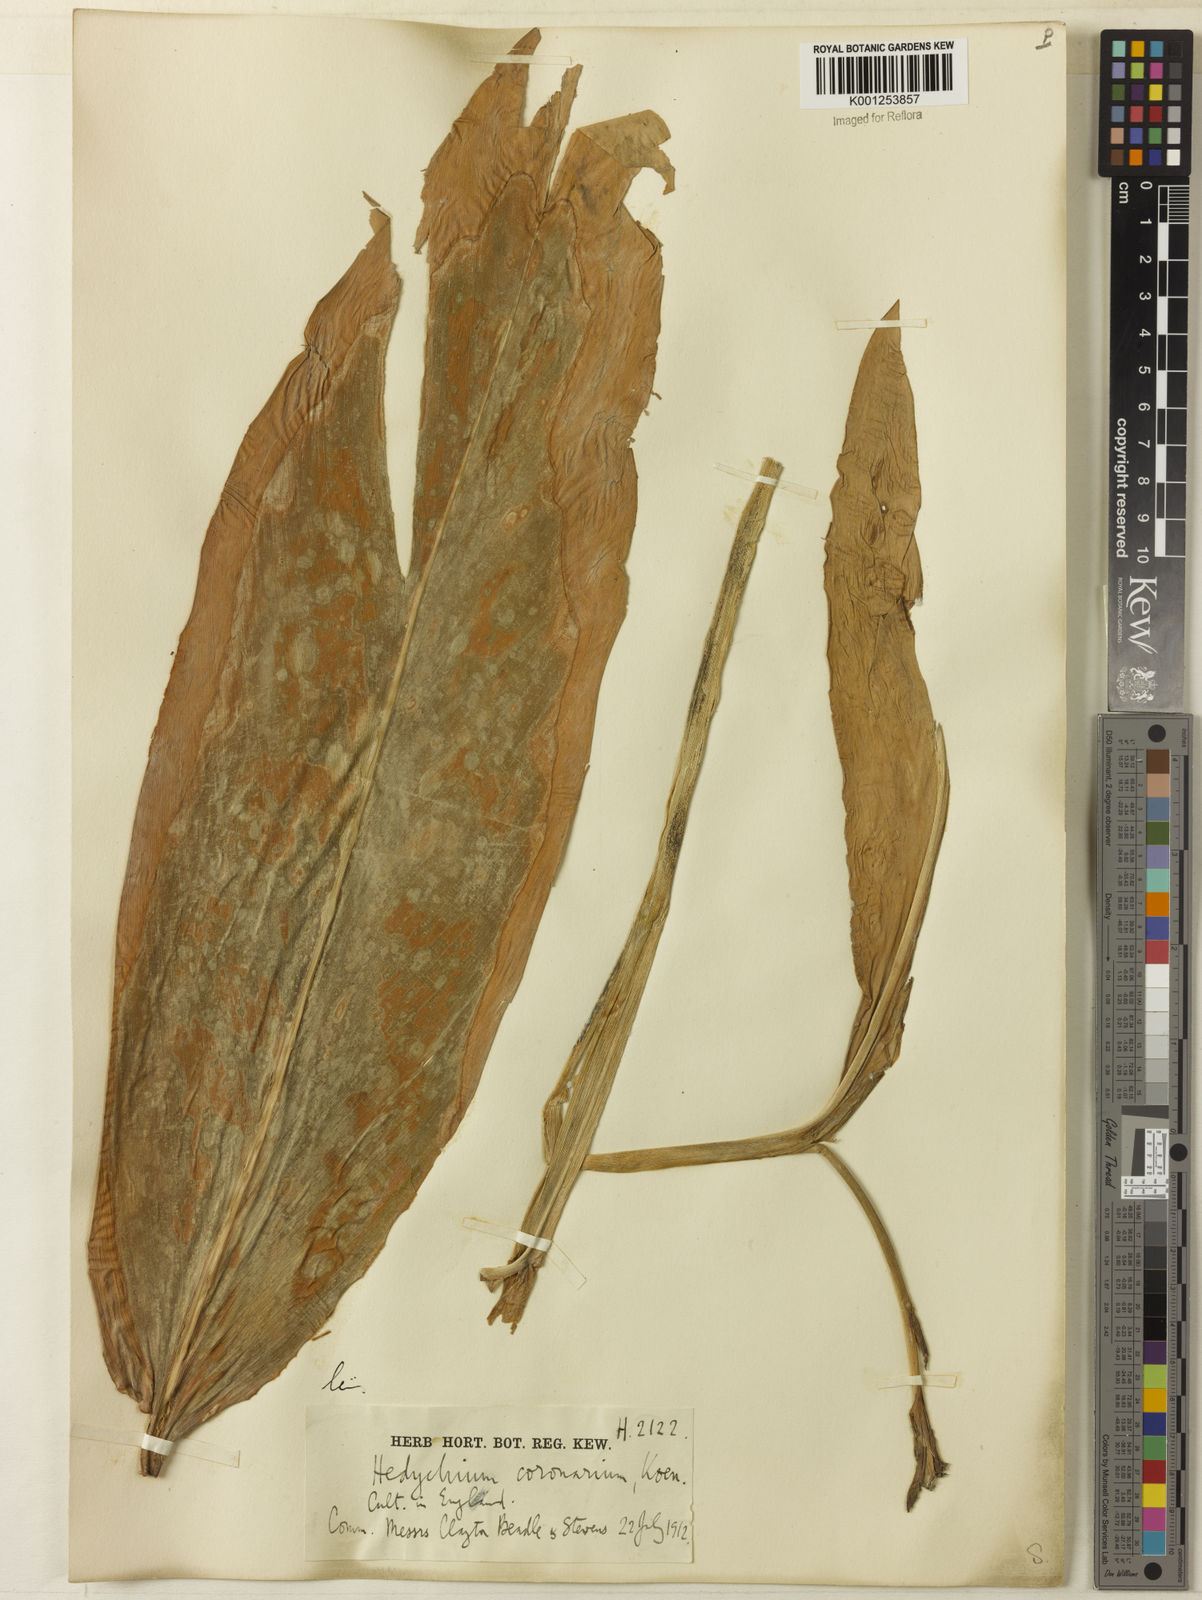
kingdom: Plantae
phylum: Tracheophyta
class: Liliopsida
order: Zingiberales
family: Zingiberaceae
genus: Hedychium
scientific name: Hedychium coronarium
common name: White garland-lily
